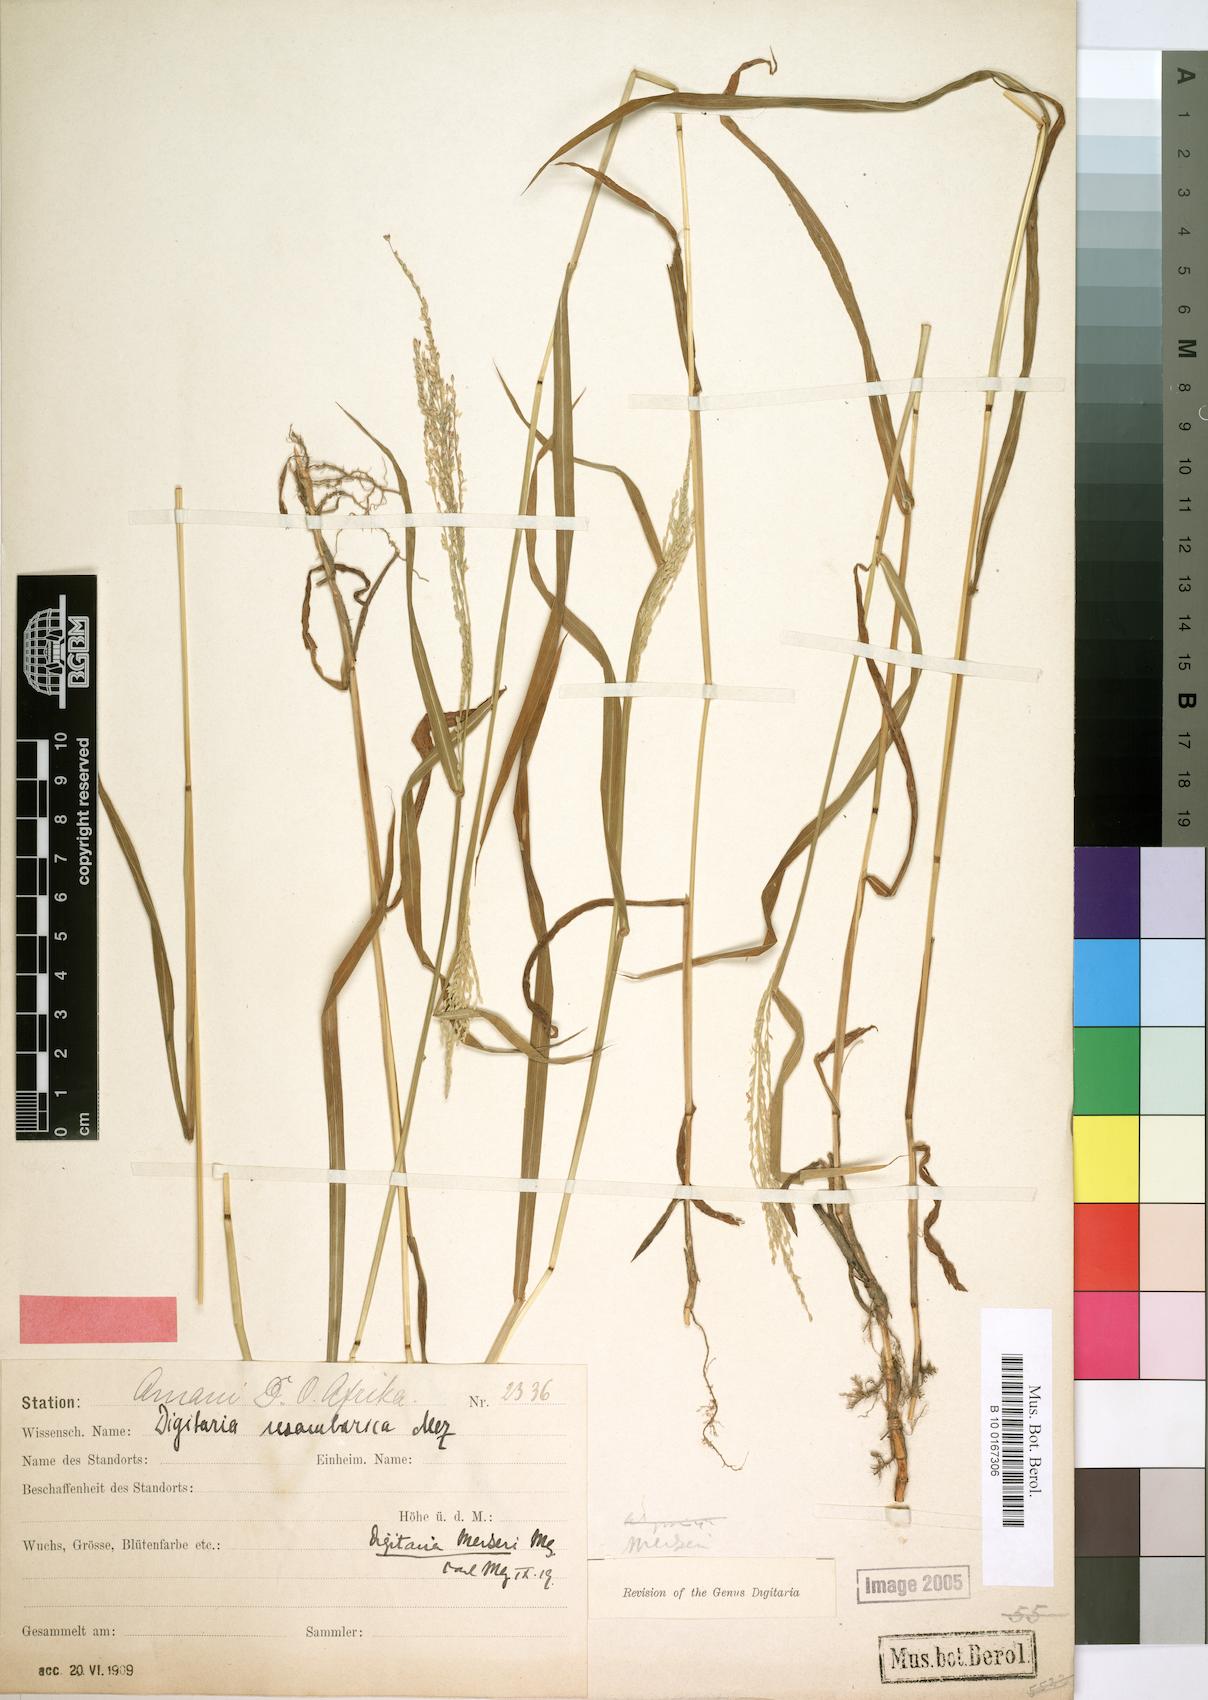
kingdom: Plantae
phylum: Tracheophyta
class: Liliopsida
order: Poales
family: Poaceae
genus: Digitaria
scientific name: Digitaria abyssinica
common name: African couchgrass
